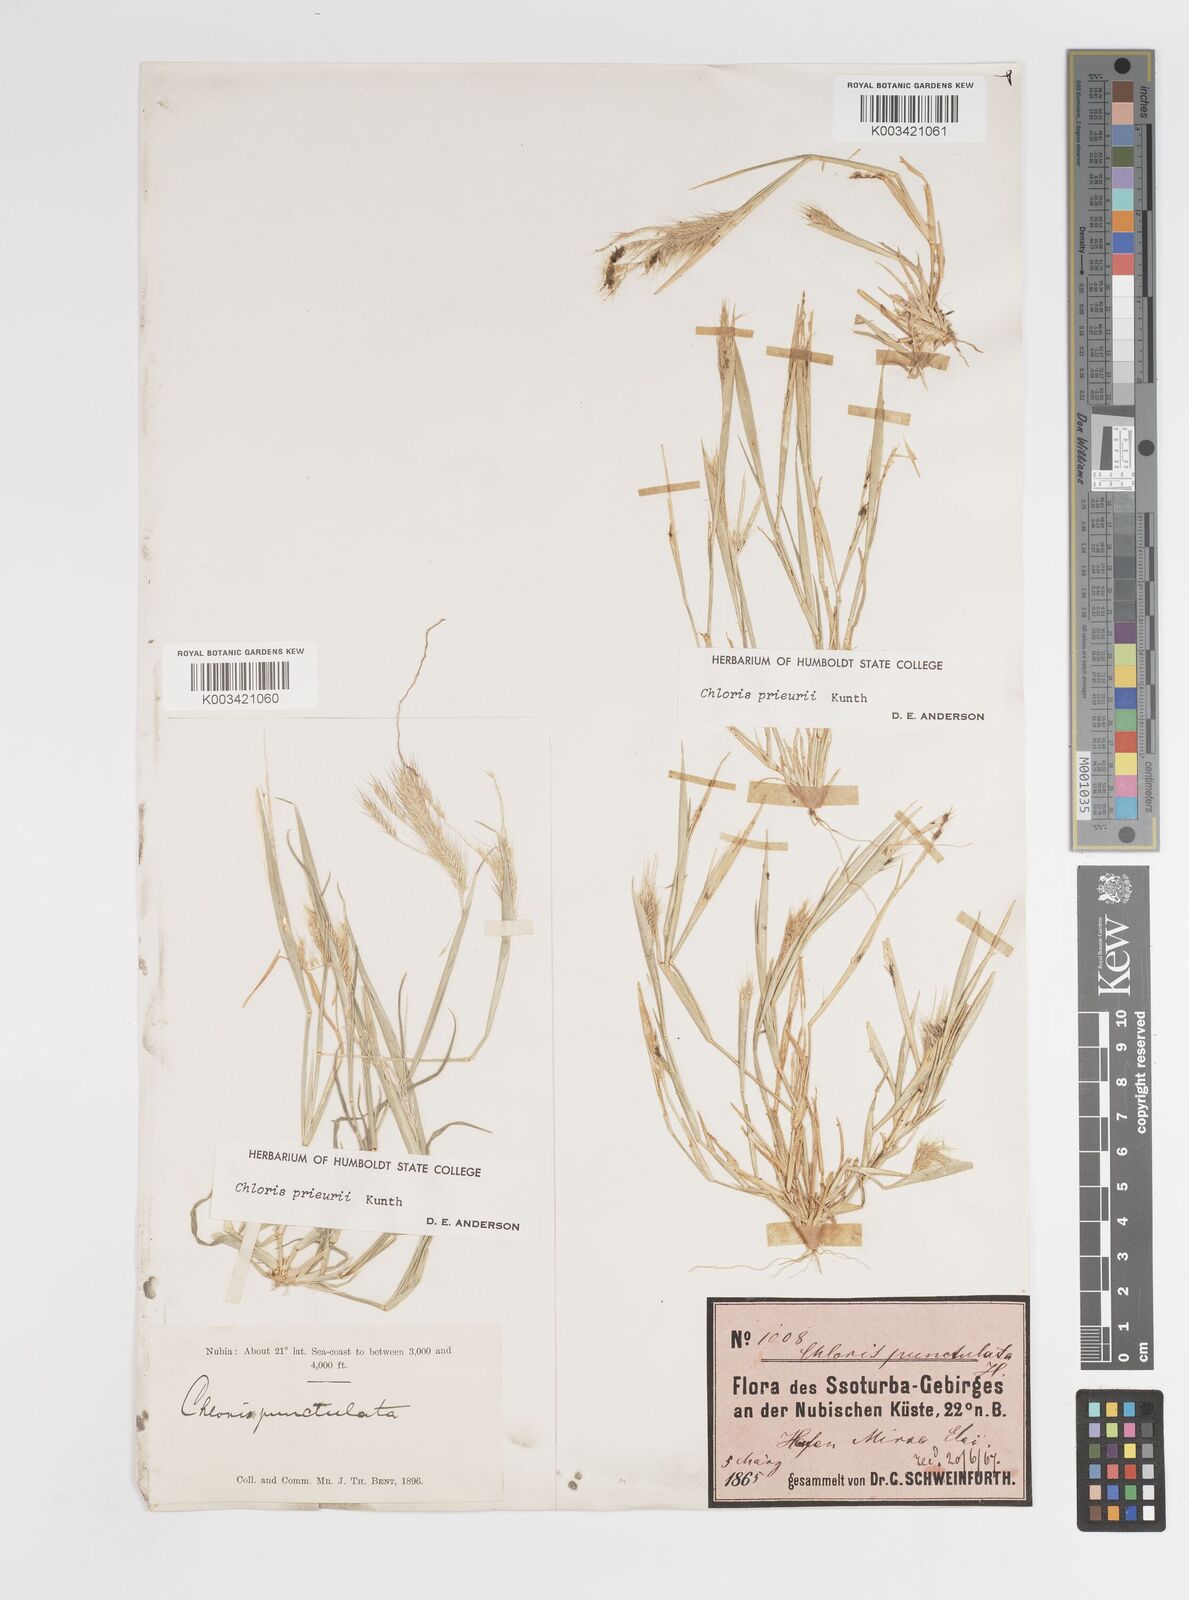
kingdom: Plantae
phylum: Tracheophyta
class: Liliopsida
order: Poales
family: Poaceae
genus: Enteropogon
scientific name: Enteropogon prieurii
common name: Prieur's umbrellagrass
